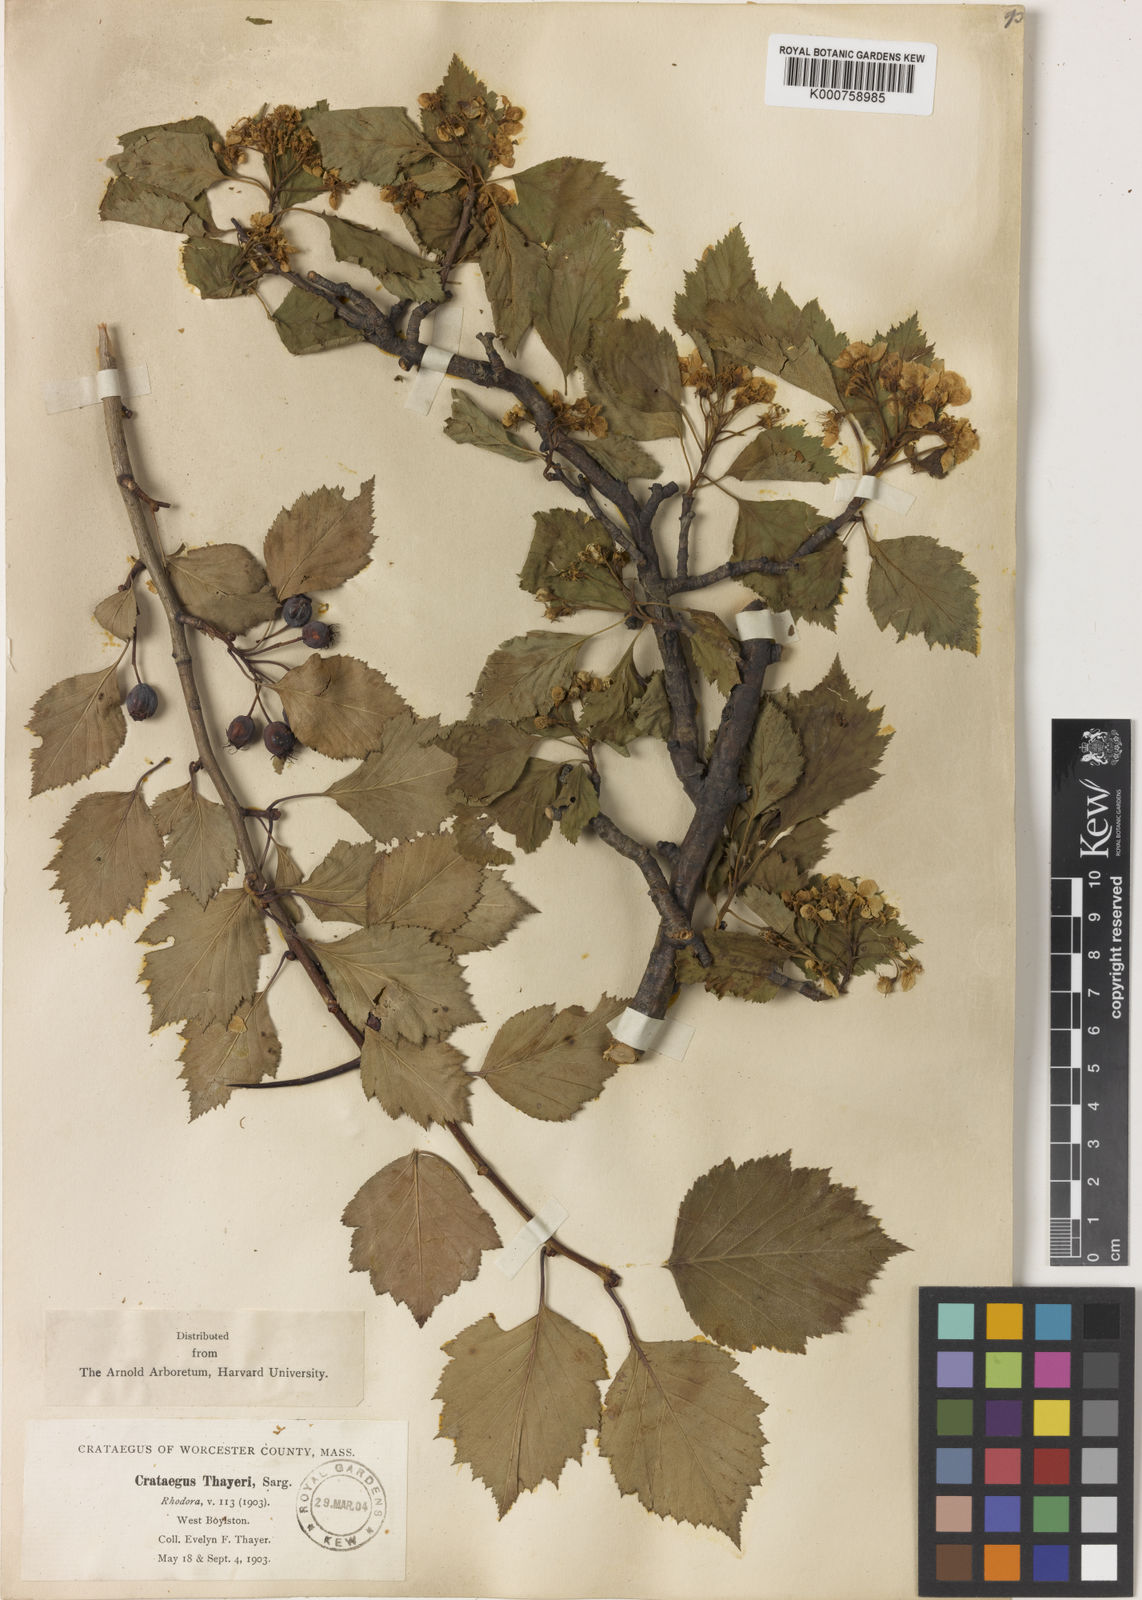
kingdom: Plantae
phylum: Tracheophyta
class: Magnoliopsida
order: Rosales
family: Rosaceae
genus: Crataegus
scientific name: Crataegus serena
